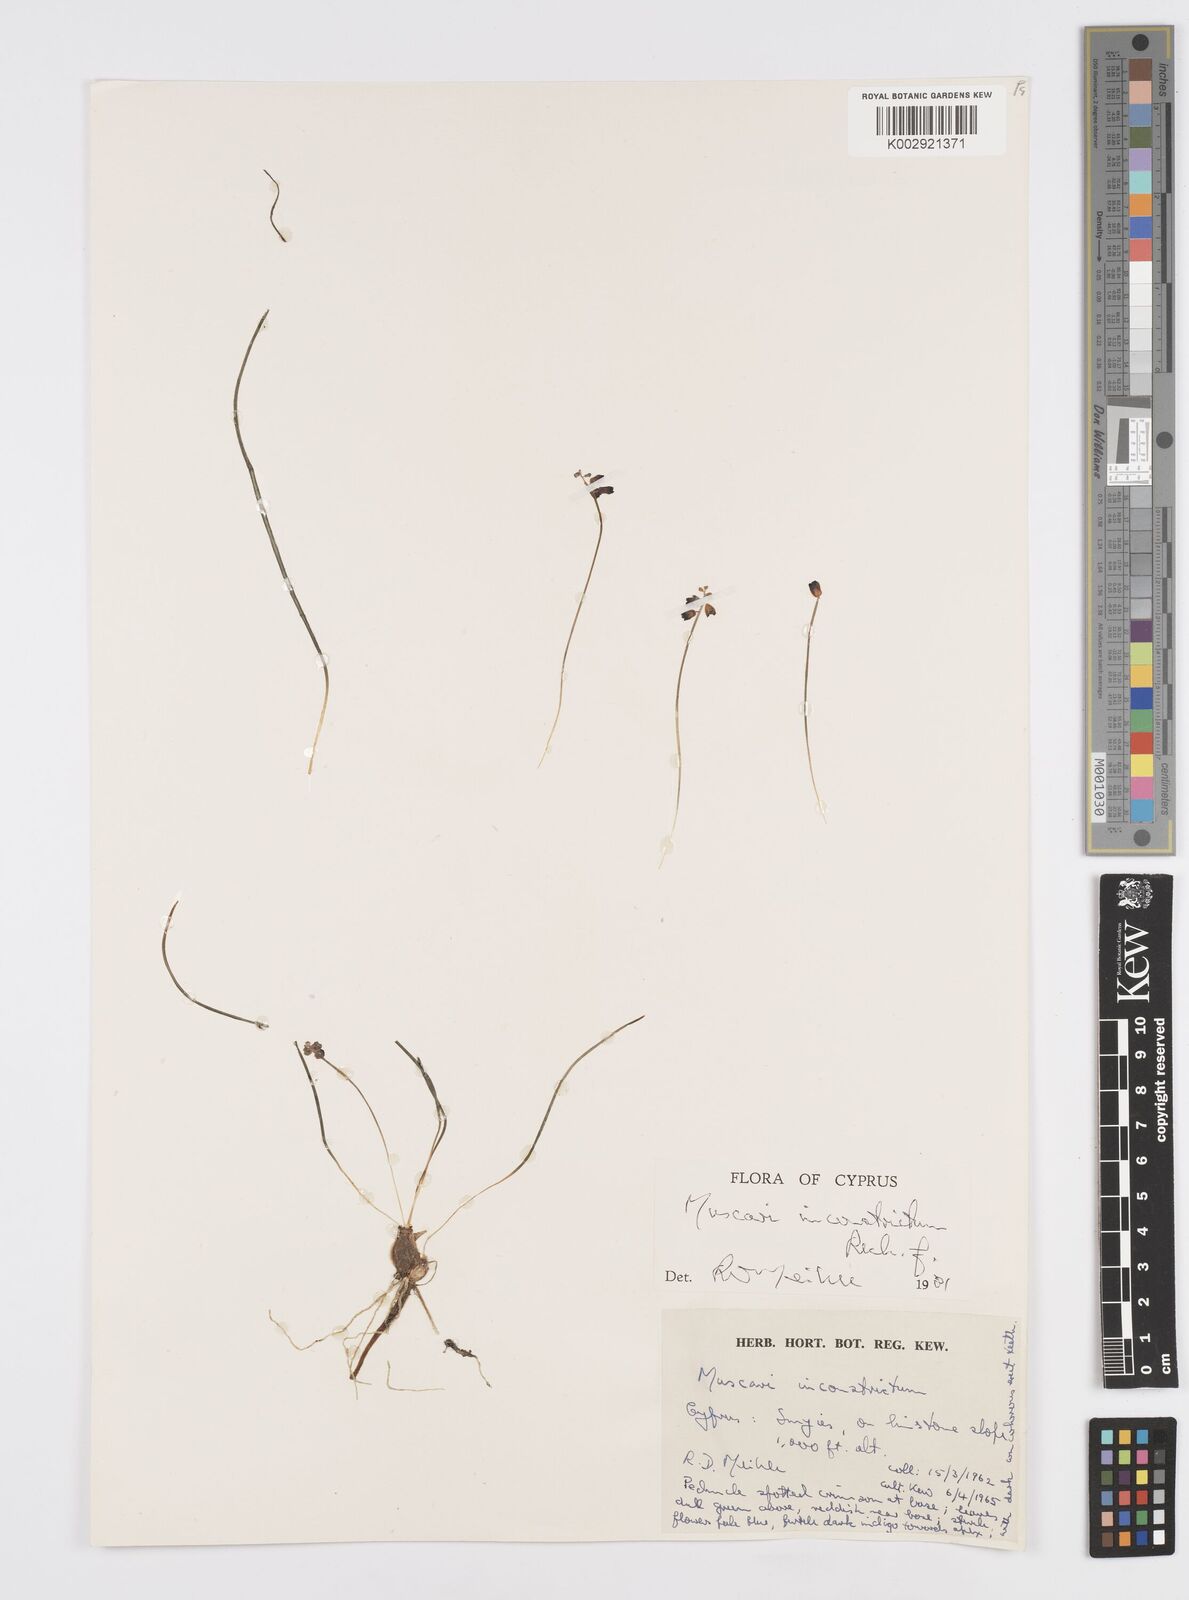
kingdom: Plantae
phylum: Tracheophyta
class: Liliopsida
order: Asparagales
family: Asparagaceae
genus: Muscari
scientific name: Muscari
